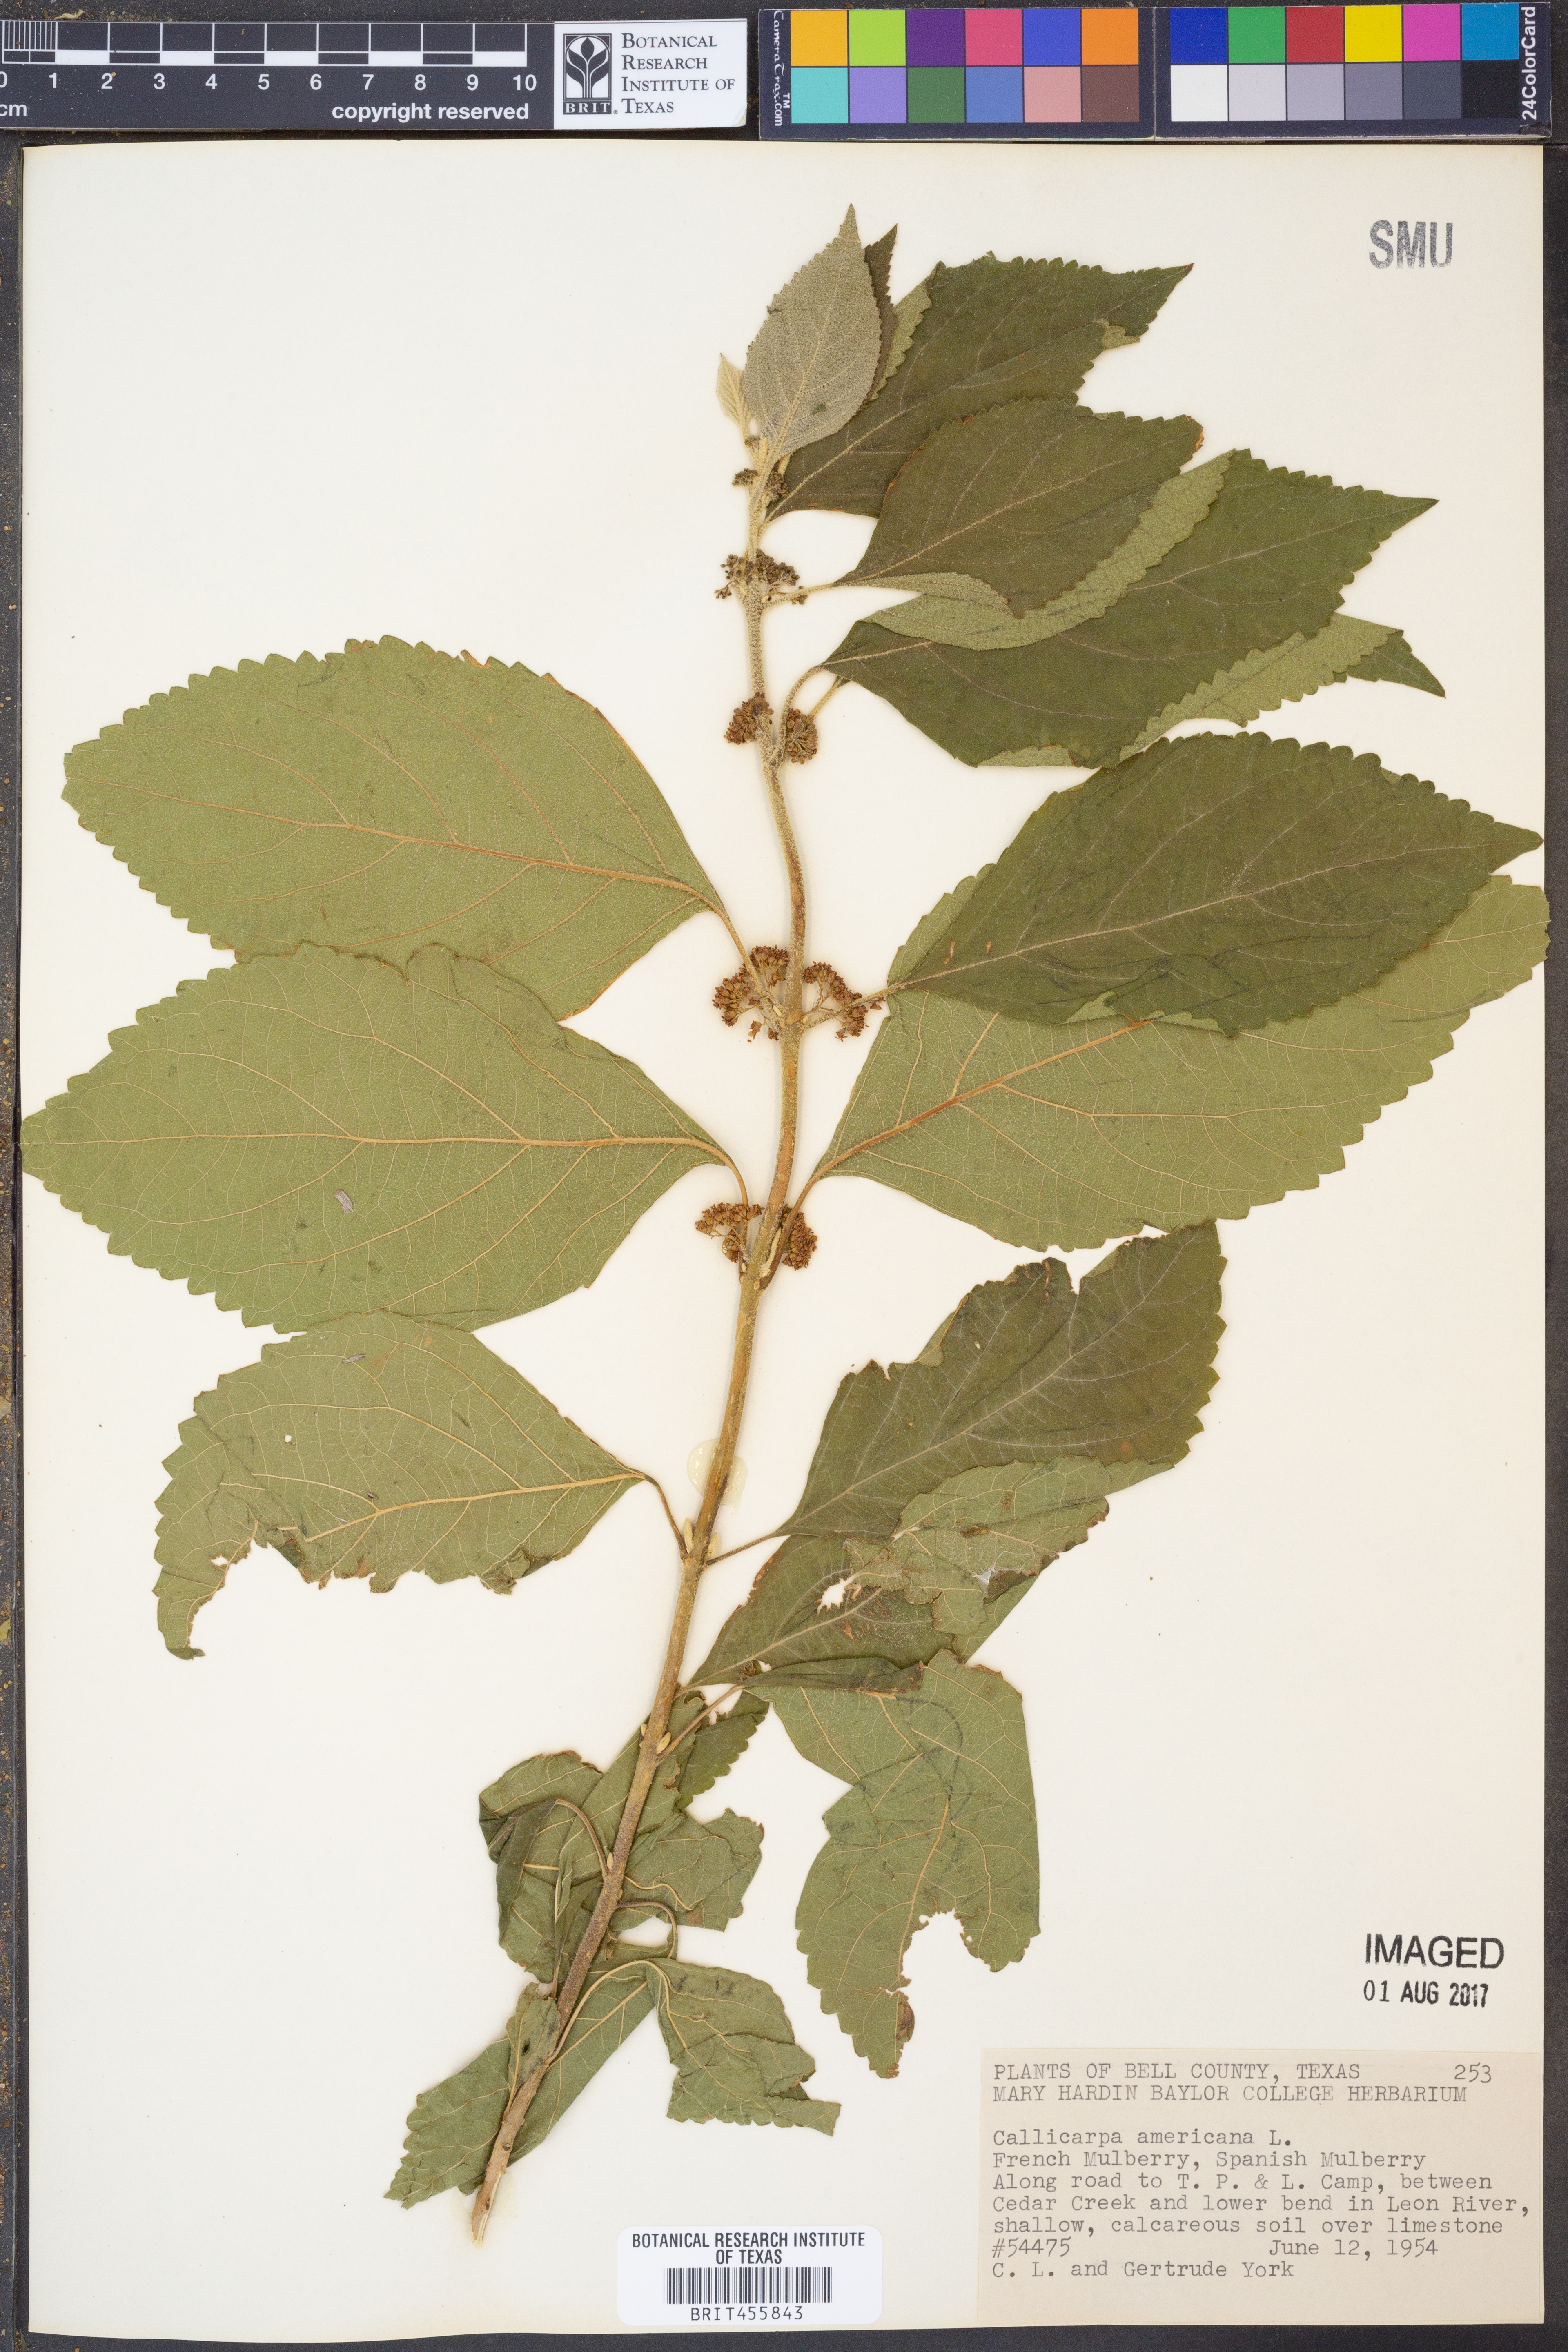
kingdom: Plantae
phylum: Tracheophyta
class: Magnoliopsida
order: Lamiales
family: Lamiaceae
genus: Callicarpa
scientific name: Callicarpa americana
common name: American beautyberry
